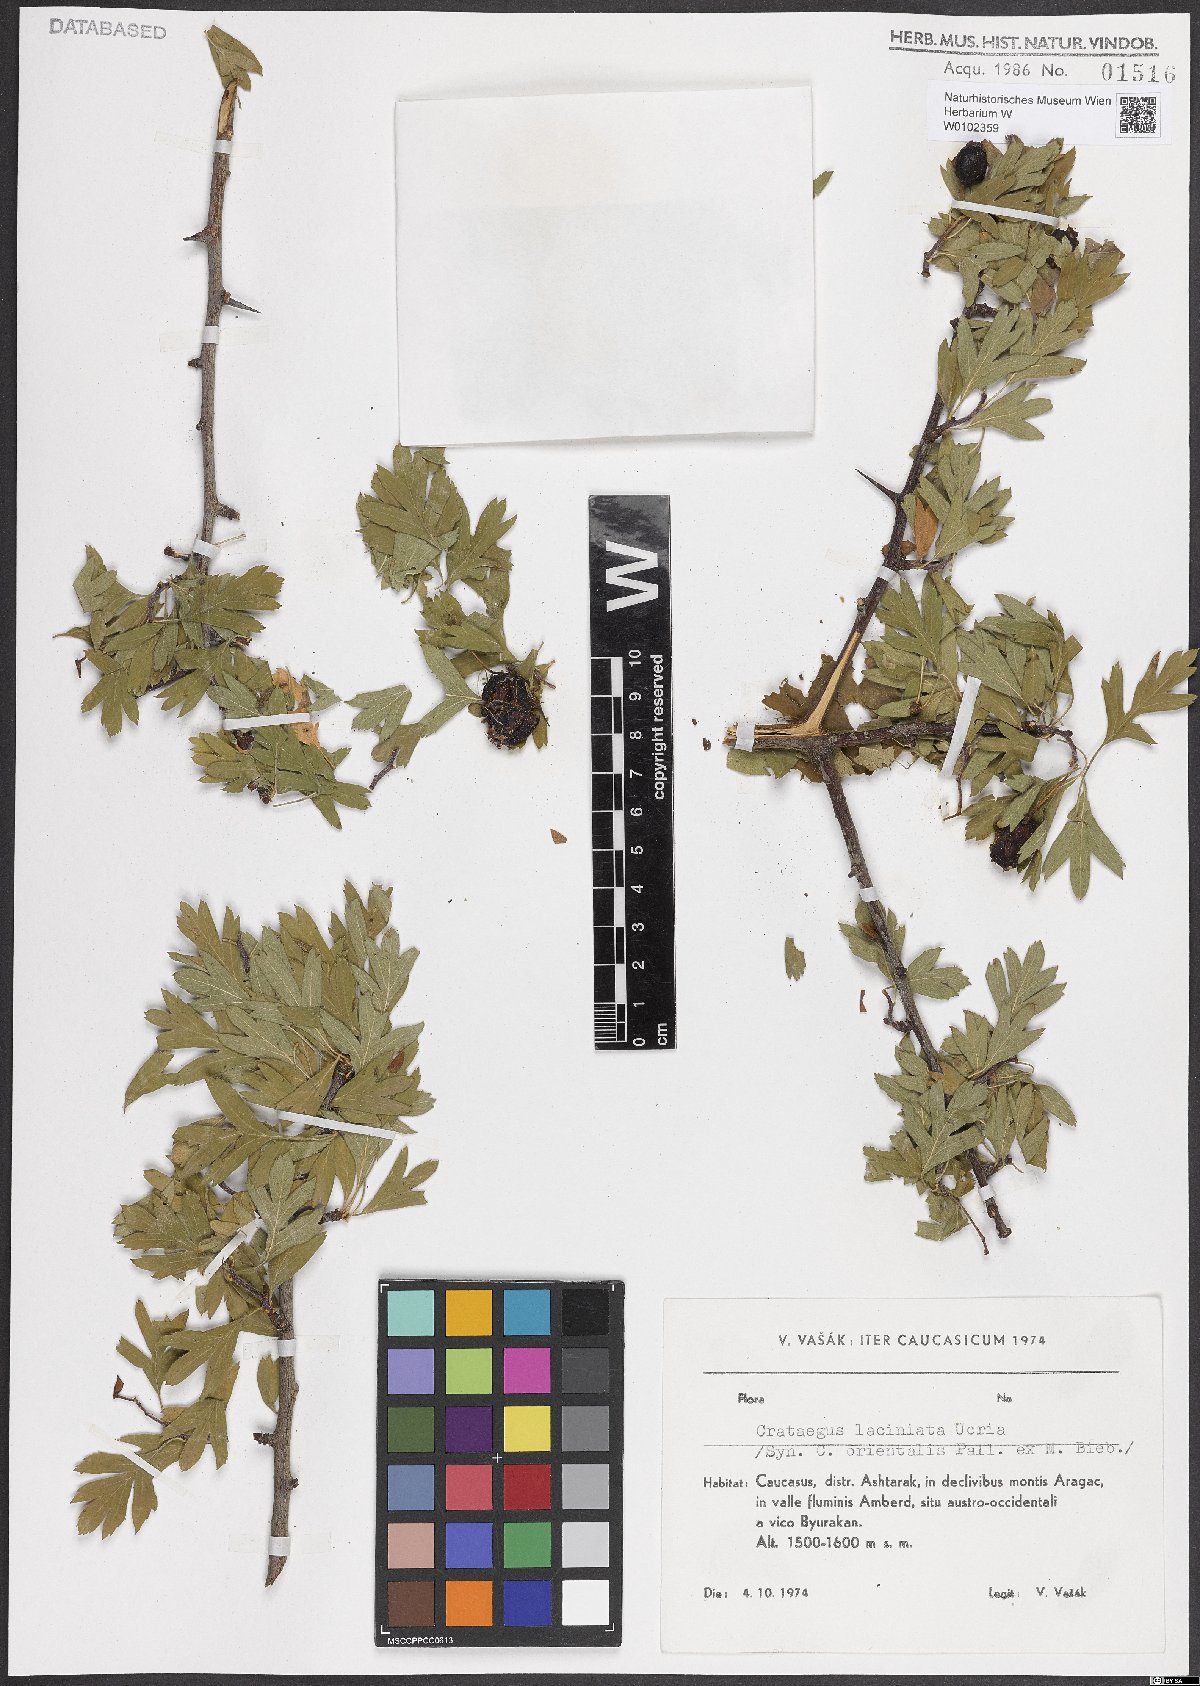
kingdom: Plantae
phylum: Tracheophyta
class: Magnoliopsida
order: Rosales
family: Rosaceae
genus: Crataegus
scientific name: Crataegus laciniata
